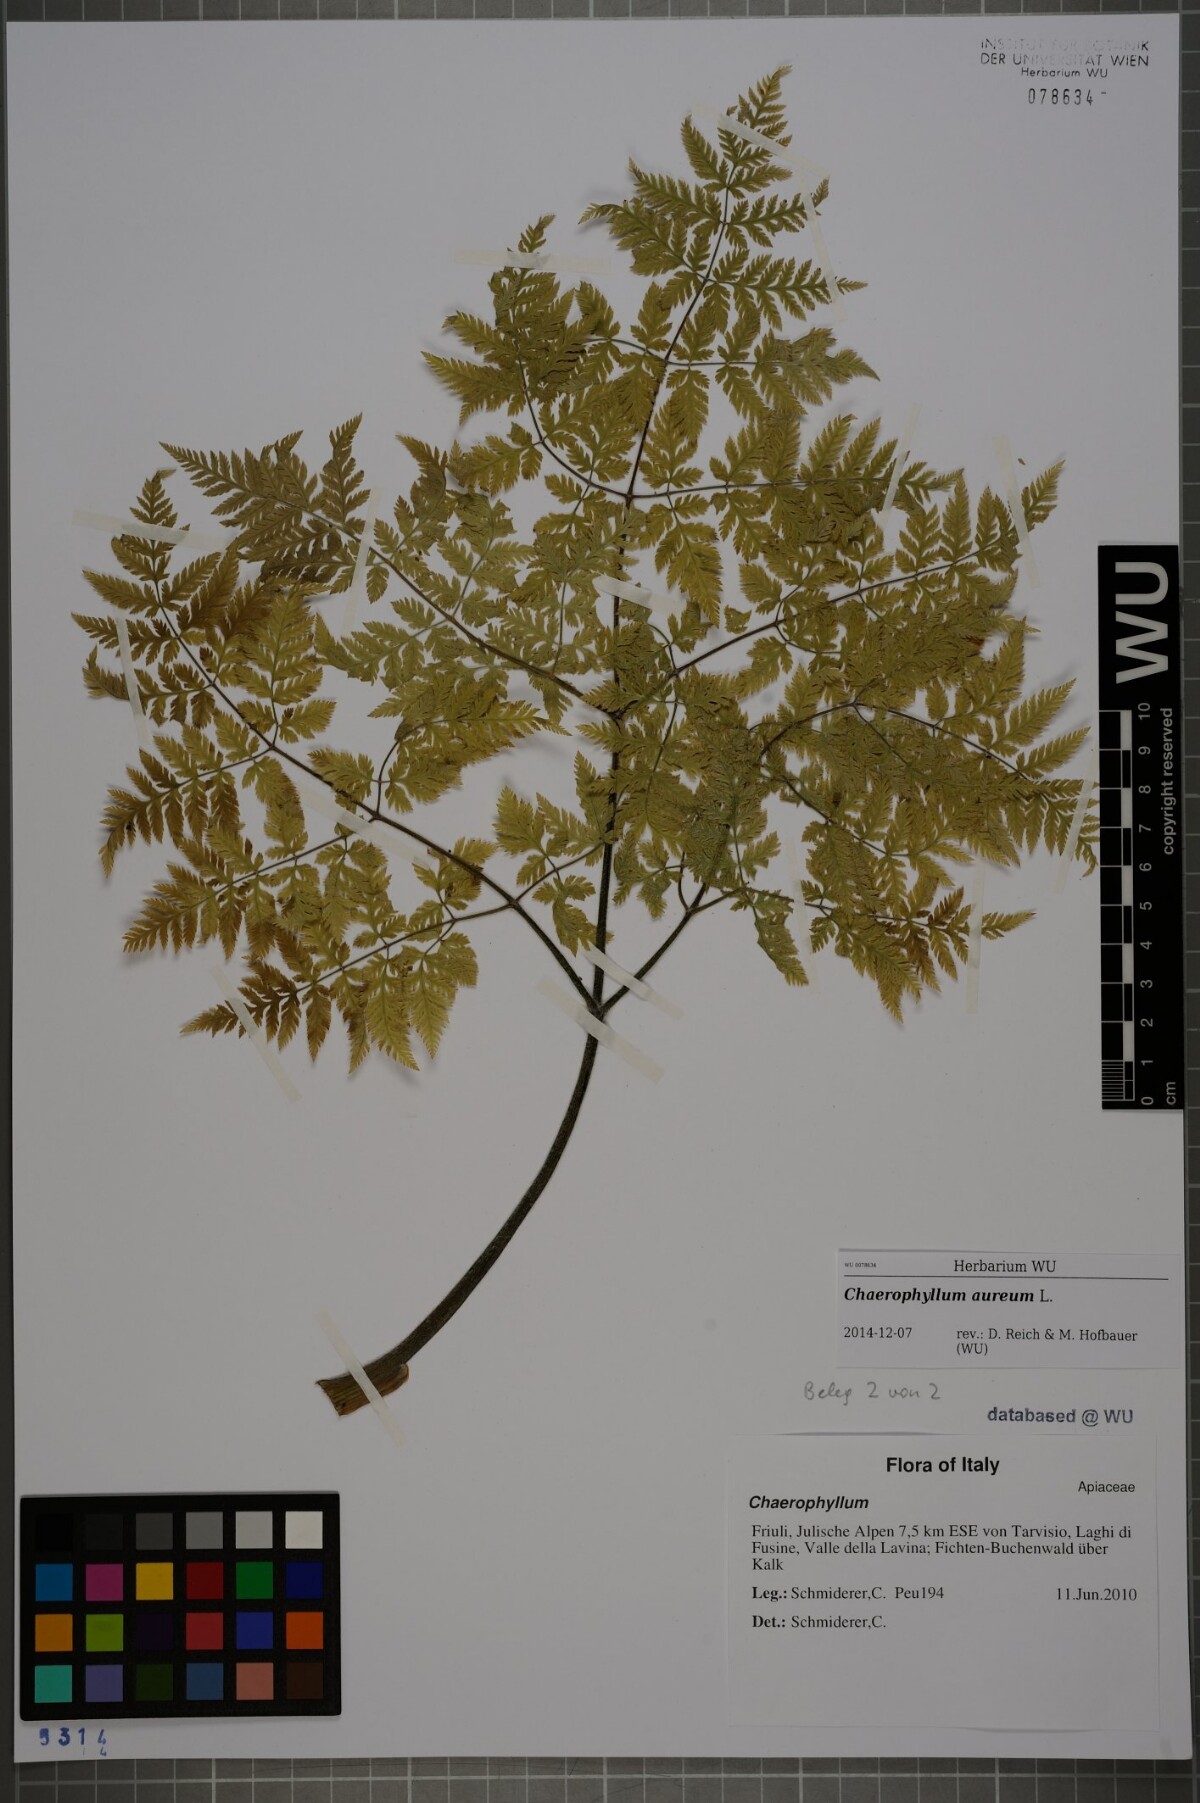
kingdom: Plantae
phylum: Tracheophyta
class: Magnoliopsida
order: Apiales
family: Apiaceae
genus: Chaerophyllum
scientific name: Chaerophyllum aureum
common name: Golden chervil
